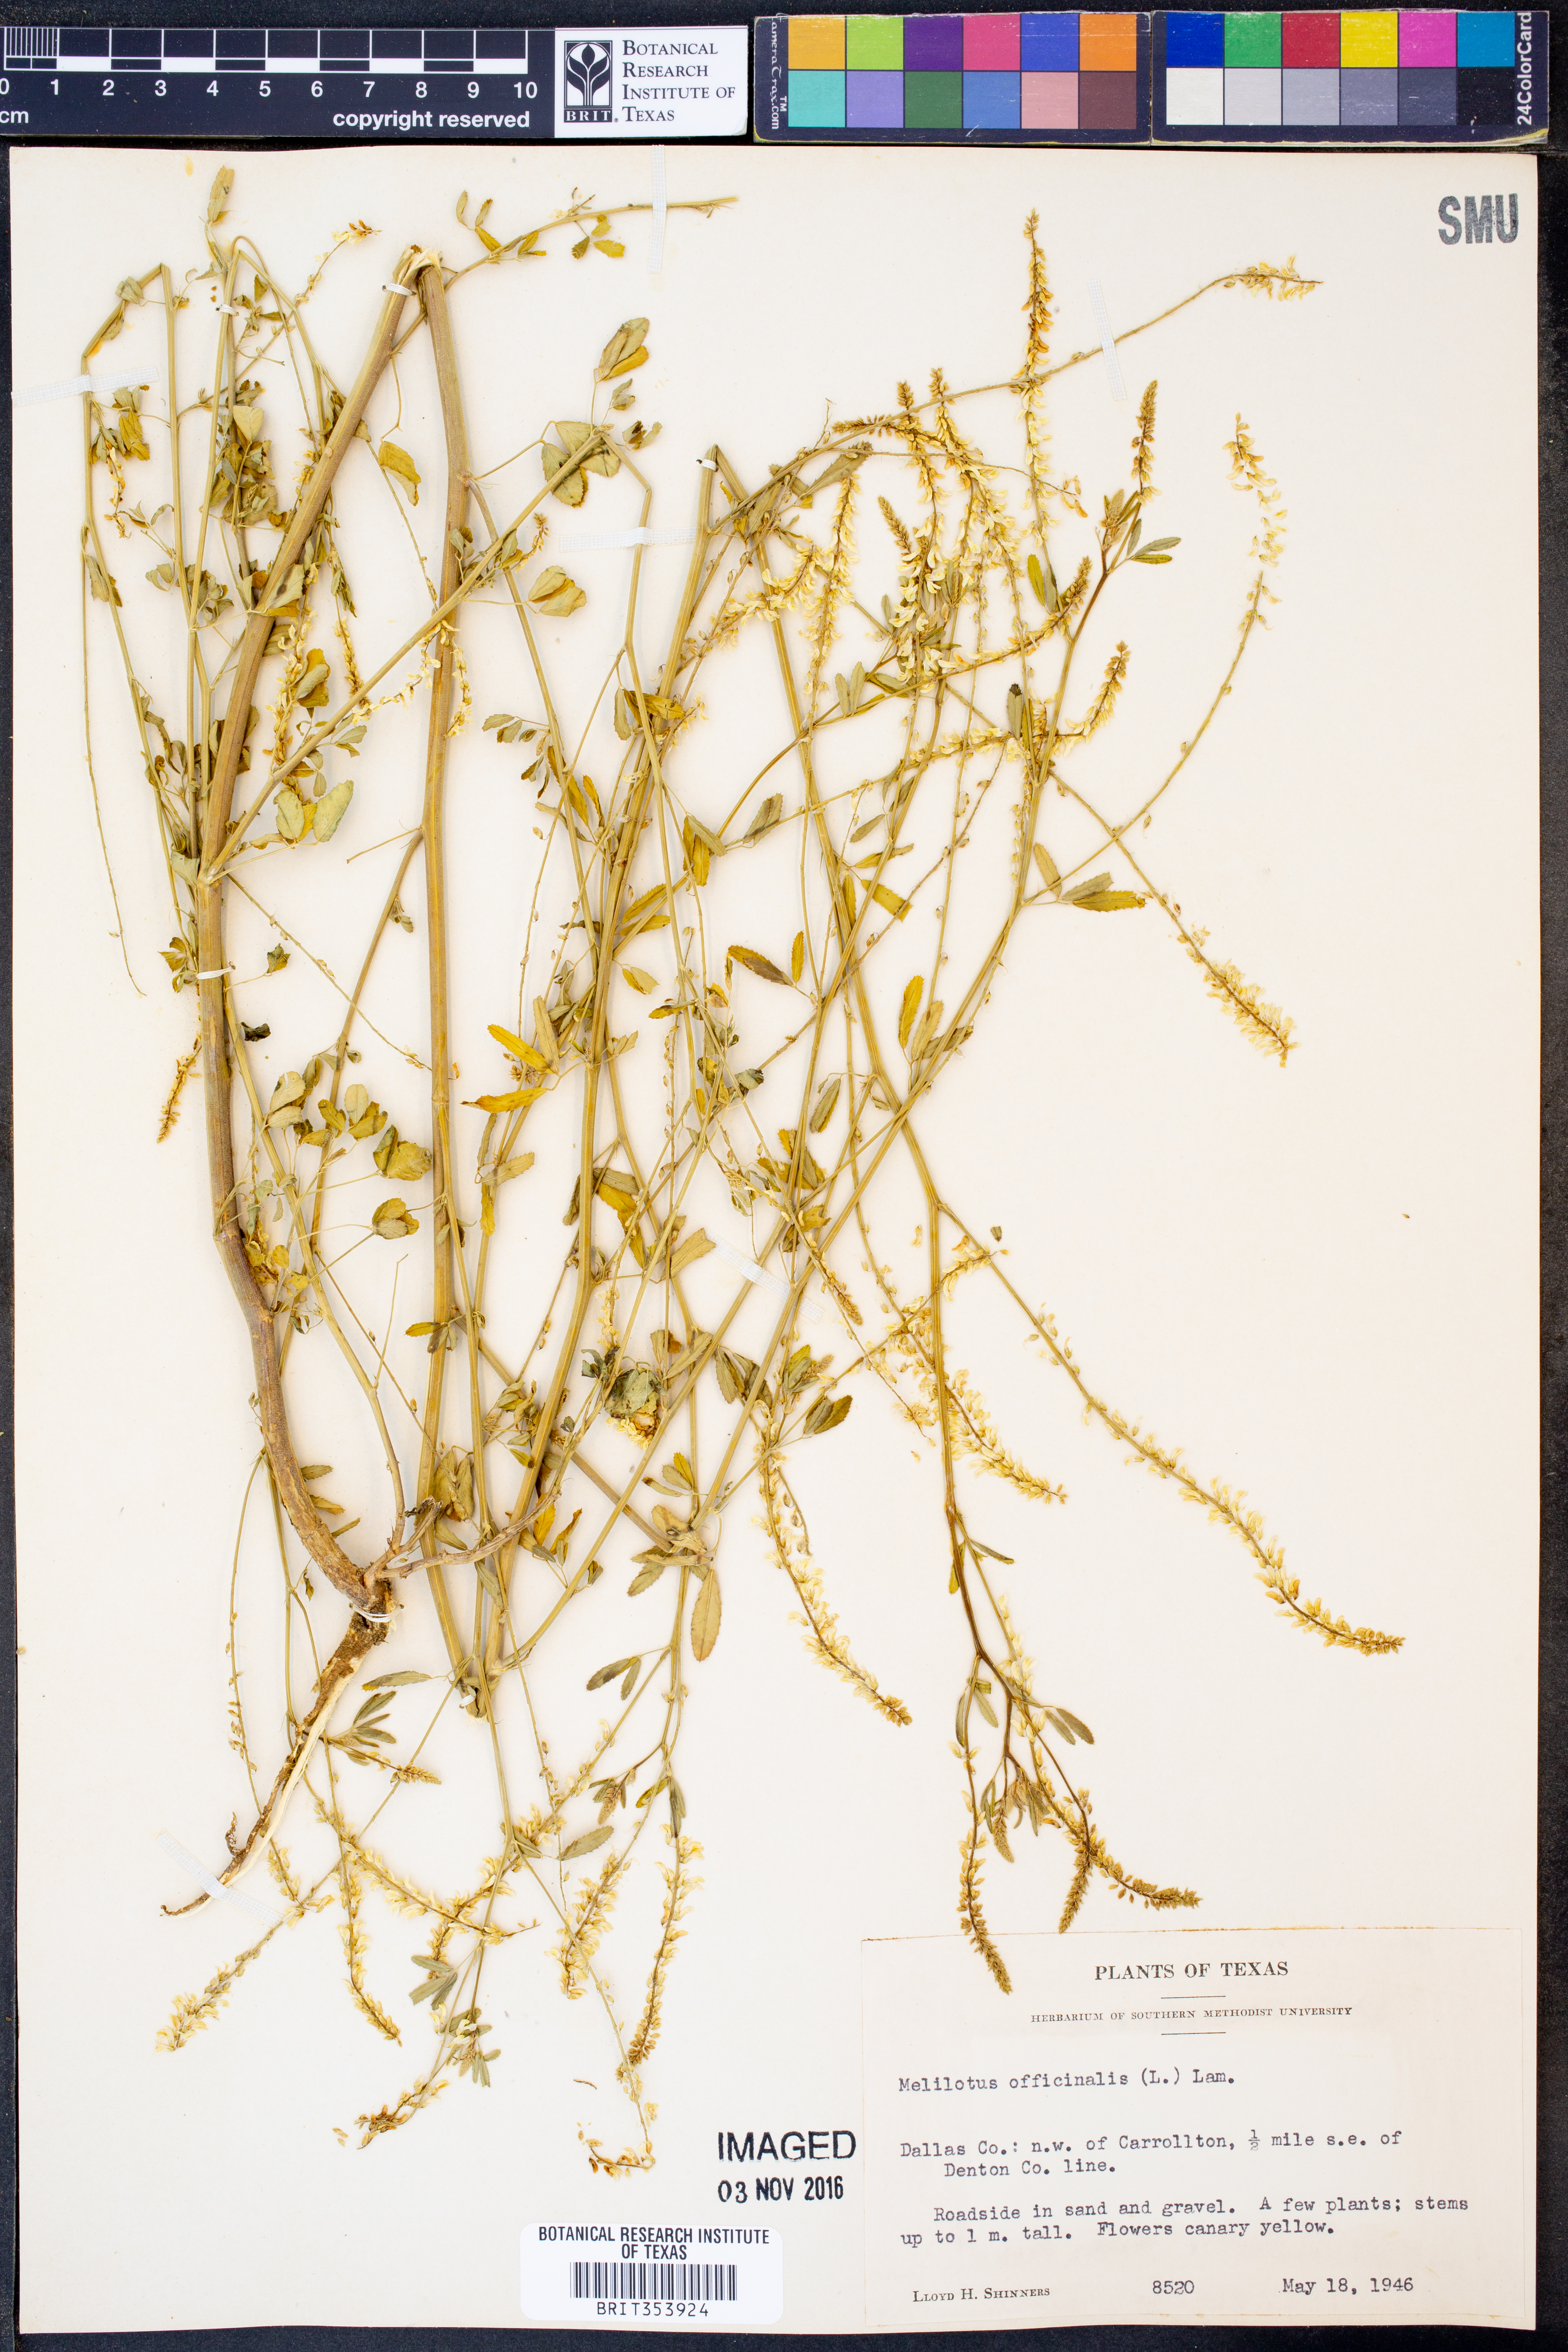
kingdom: Plantae
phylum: Tracheophyta
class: Magnoliopsida
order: Fabales
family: Fabaceae
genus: Melilotus
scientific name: Melilotus officinalis
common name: Sweetclover
